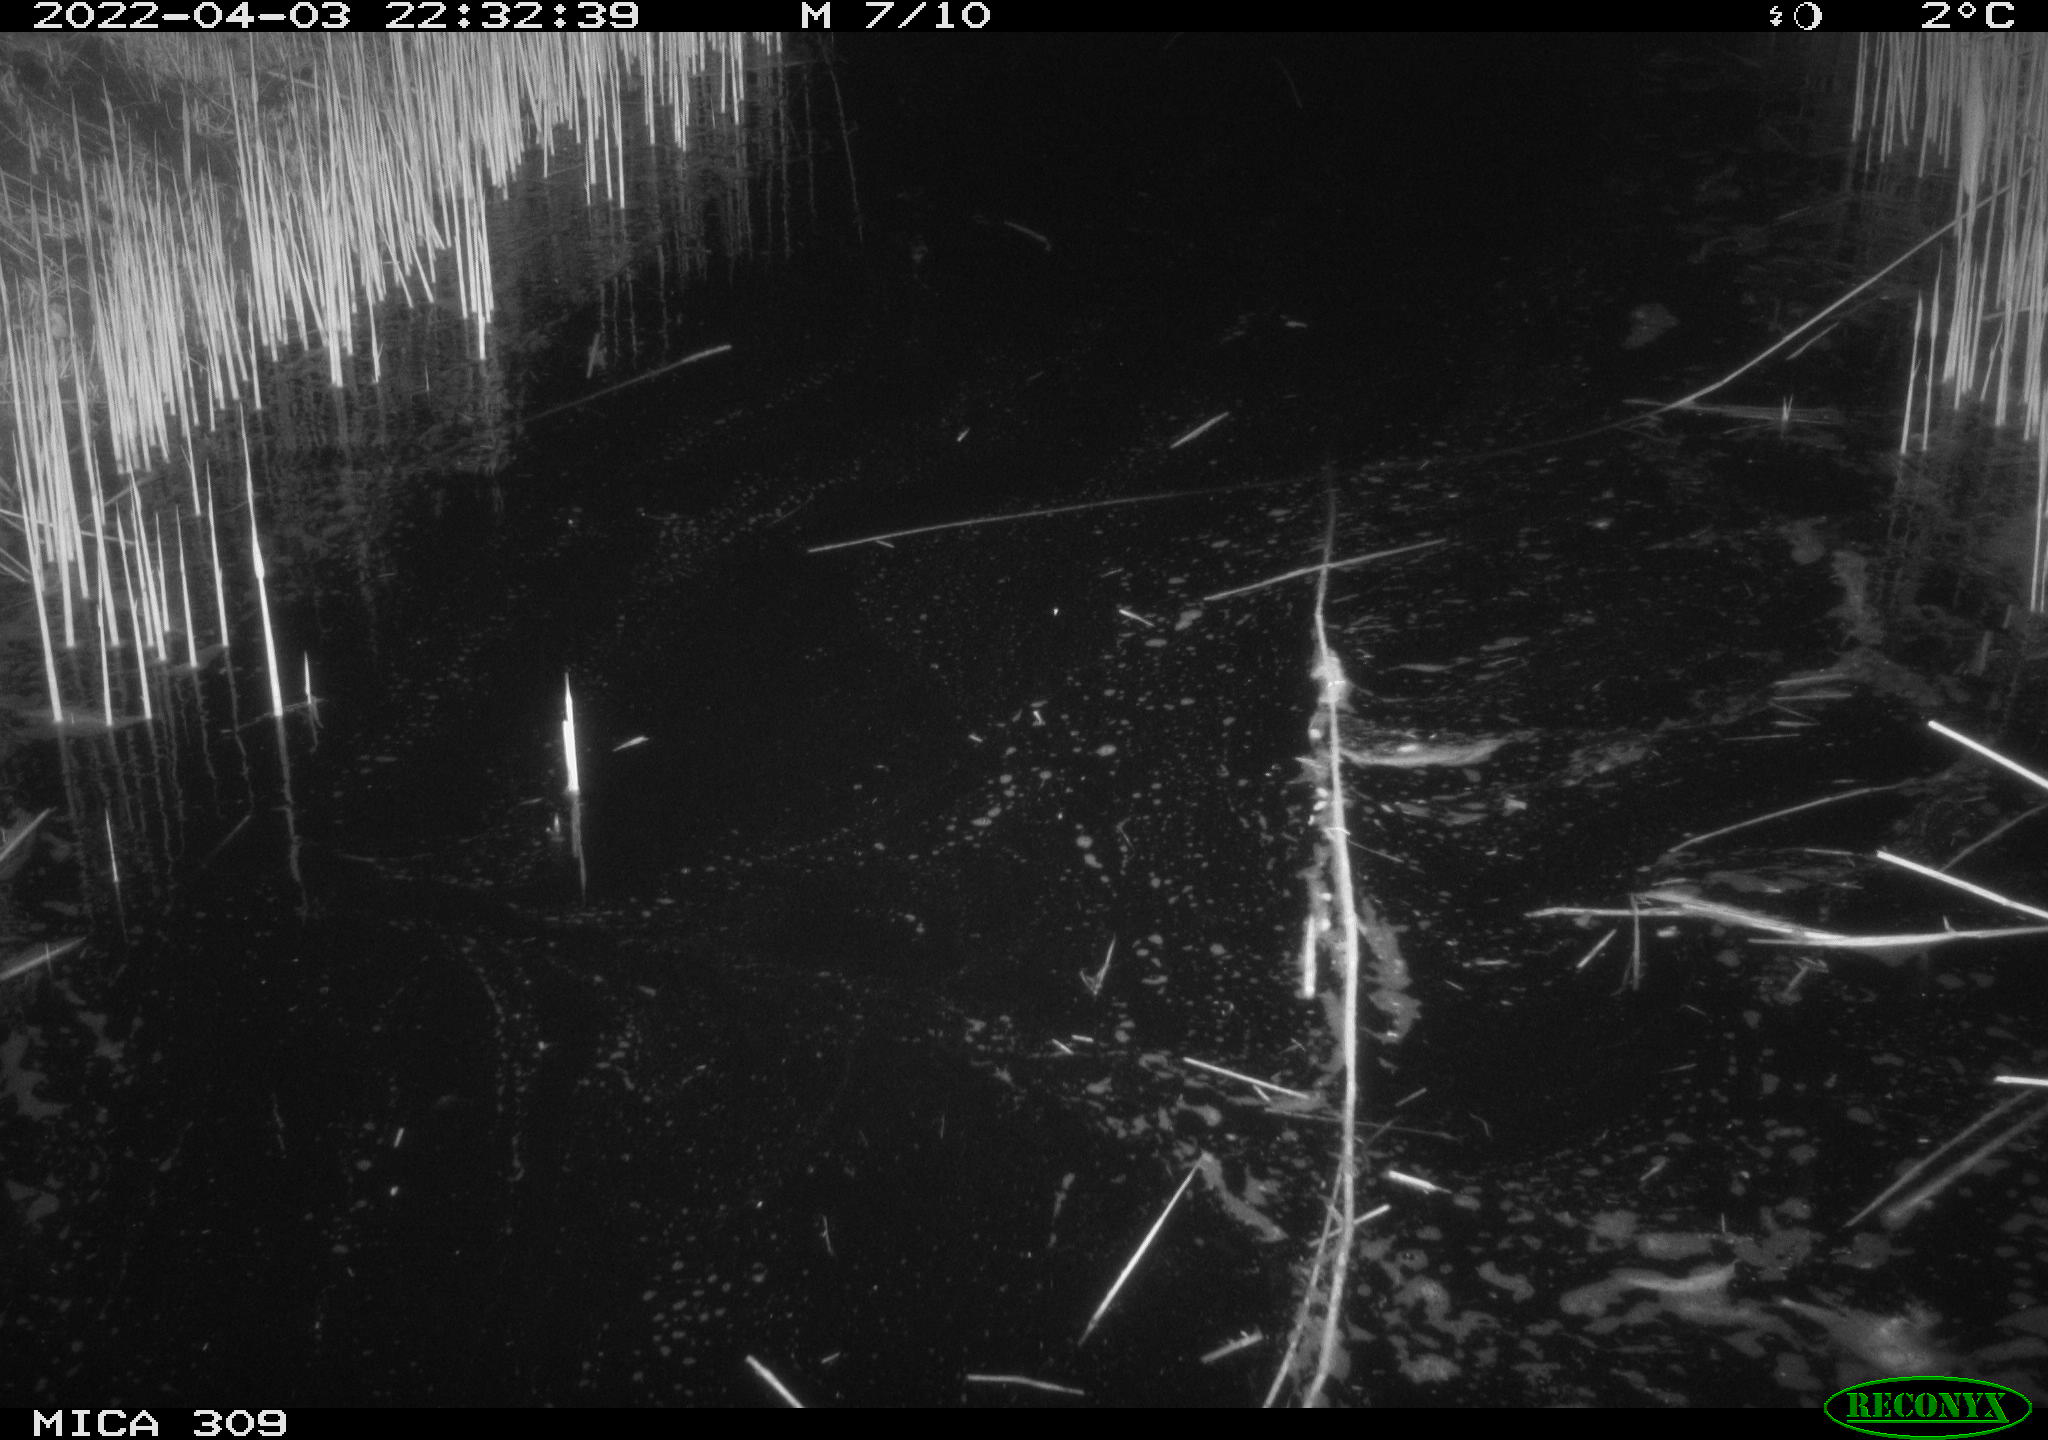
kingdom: Animalia
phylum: Chordata
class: Mammalia
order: Rodentia
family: Muridae
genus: Rattus
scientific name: Rattus norvegicus
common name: Brown rat
